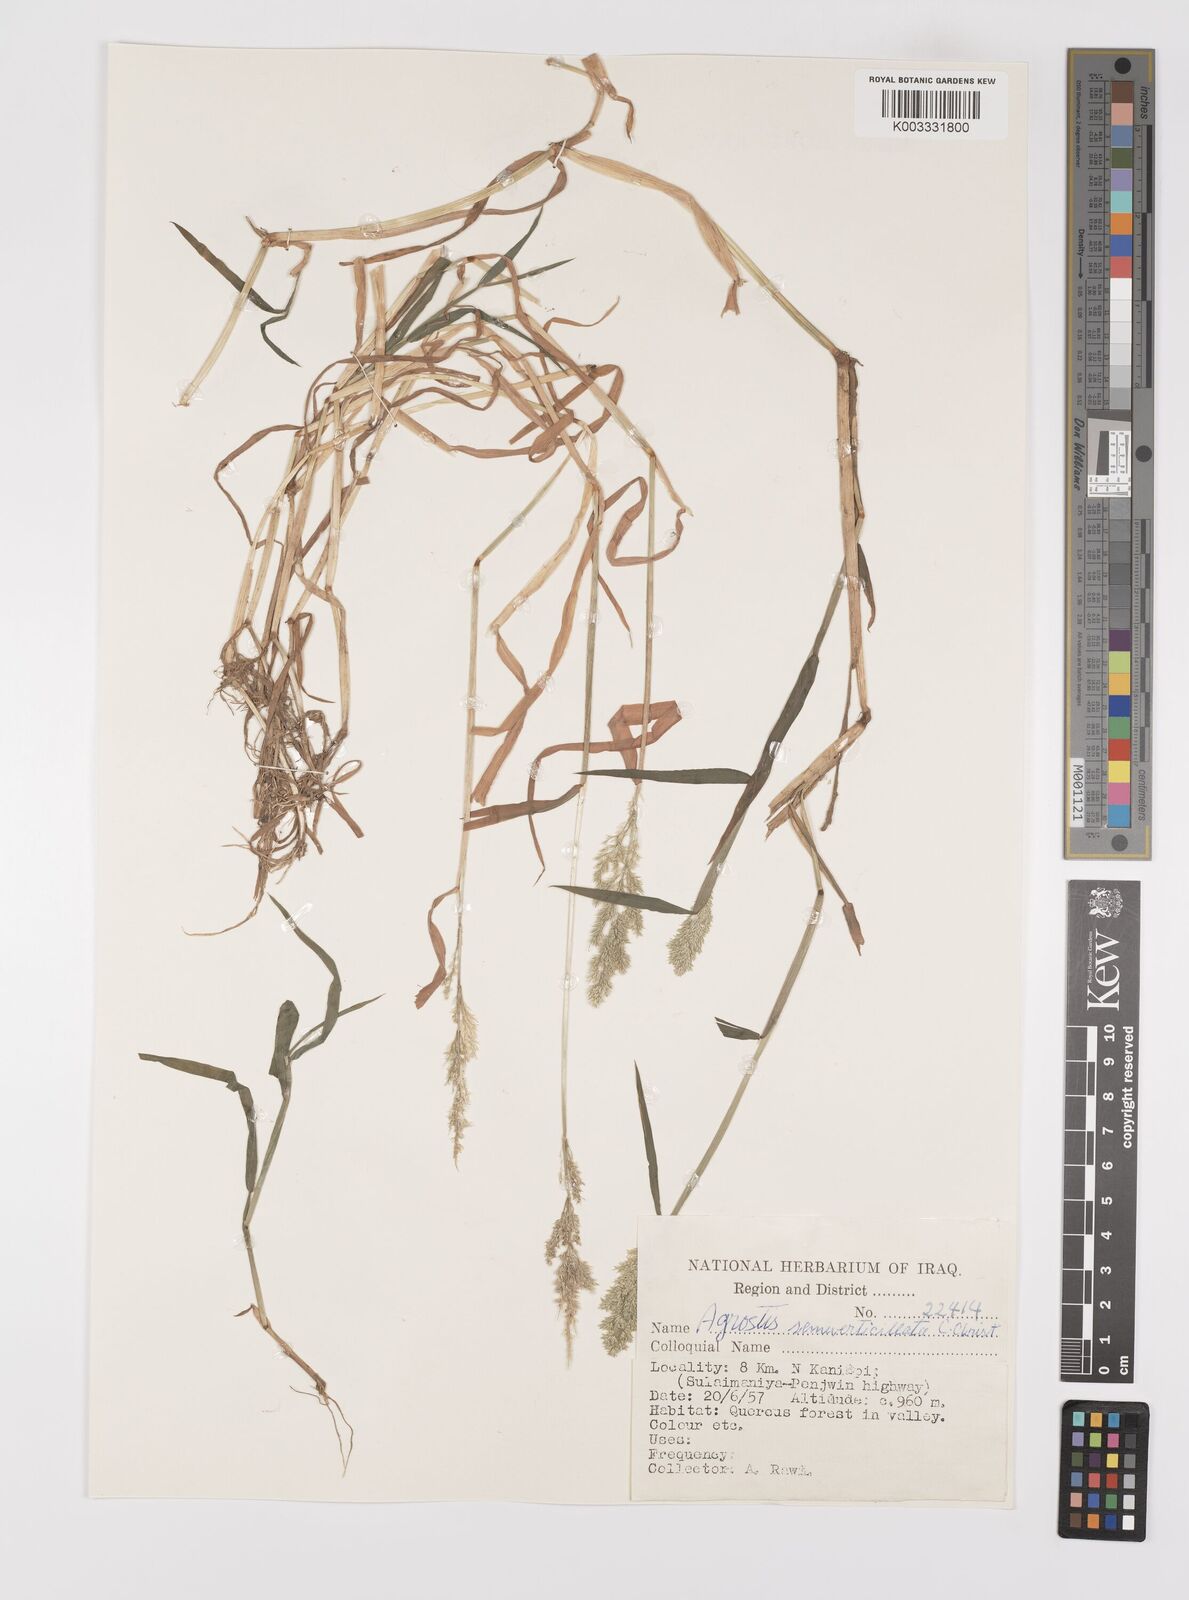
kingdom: Plantae
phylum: Tracheophyta
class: Liliopsida
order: Poales
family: Poaceae
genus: Polypogon
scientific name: Polypogon viridis
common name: Water bent
